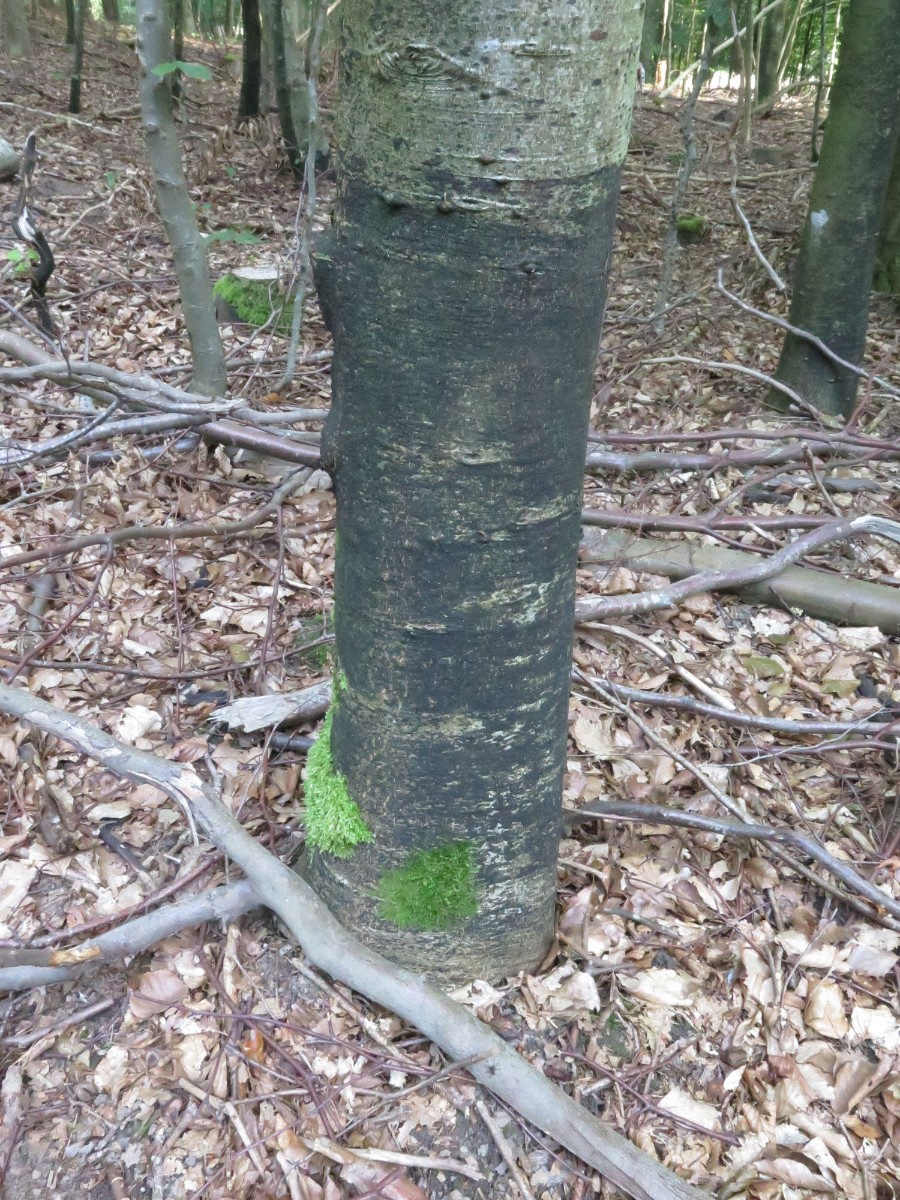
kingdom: Fungi
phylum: Ascomycota
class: Leotiomycetes
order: Rhytismatales
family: Ascodichaenaceae
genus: Ascodichaena
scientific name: Ascodichaena rugosa
